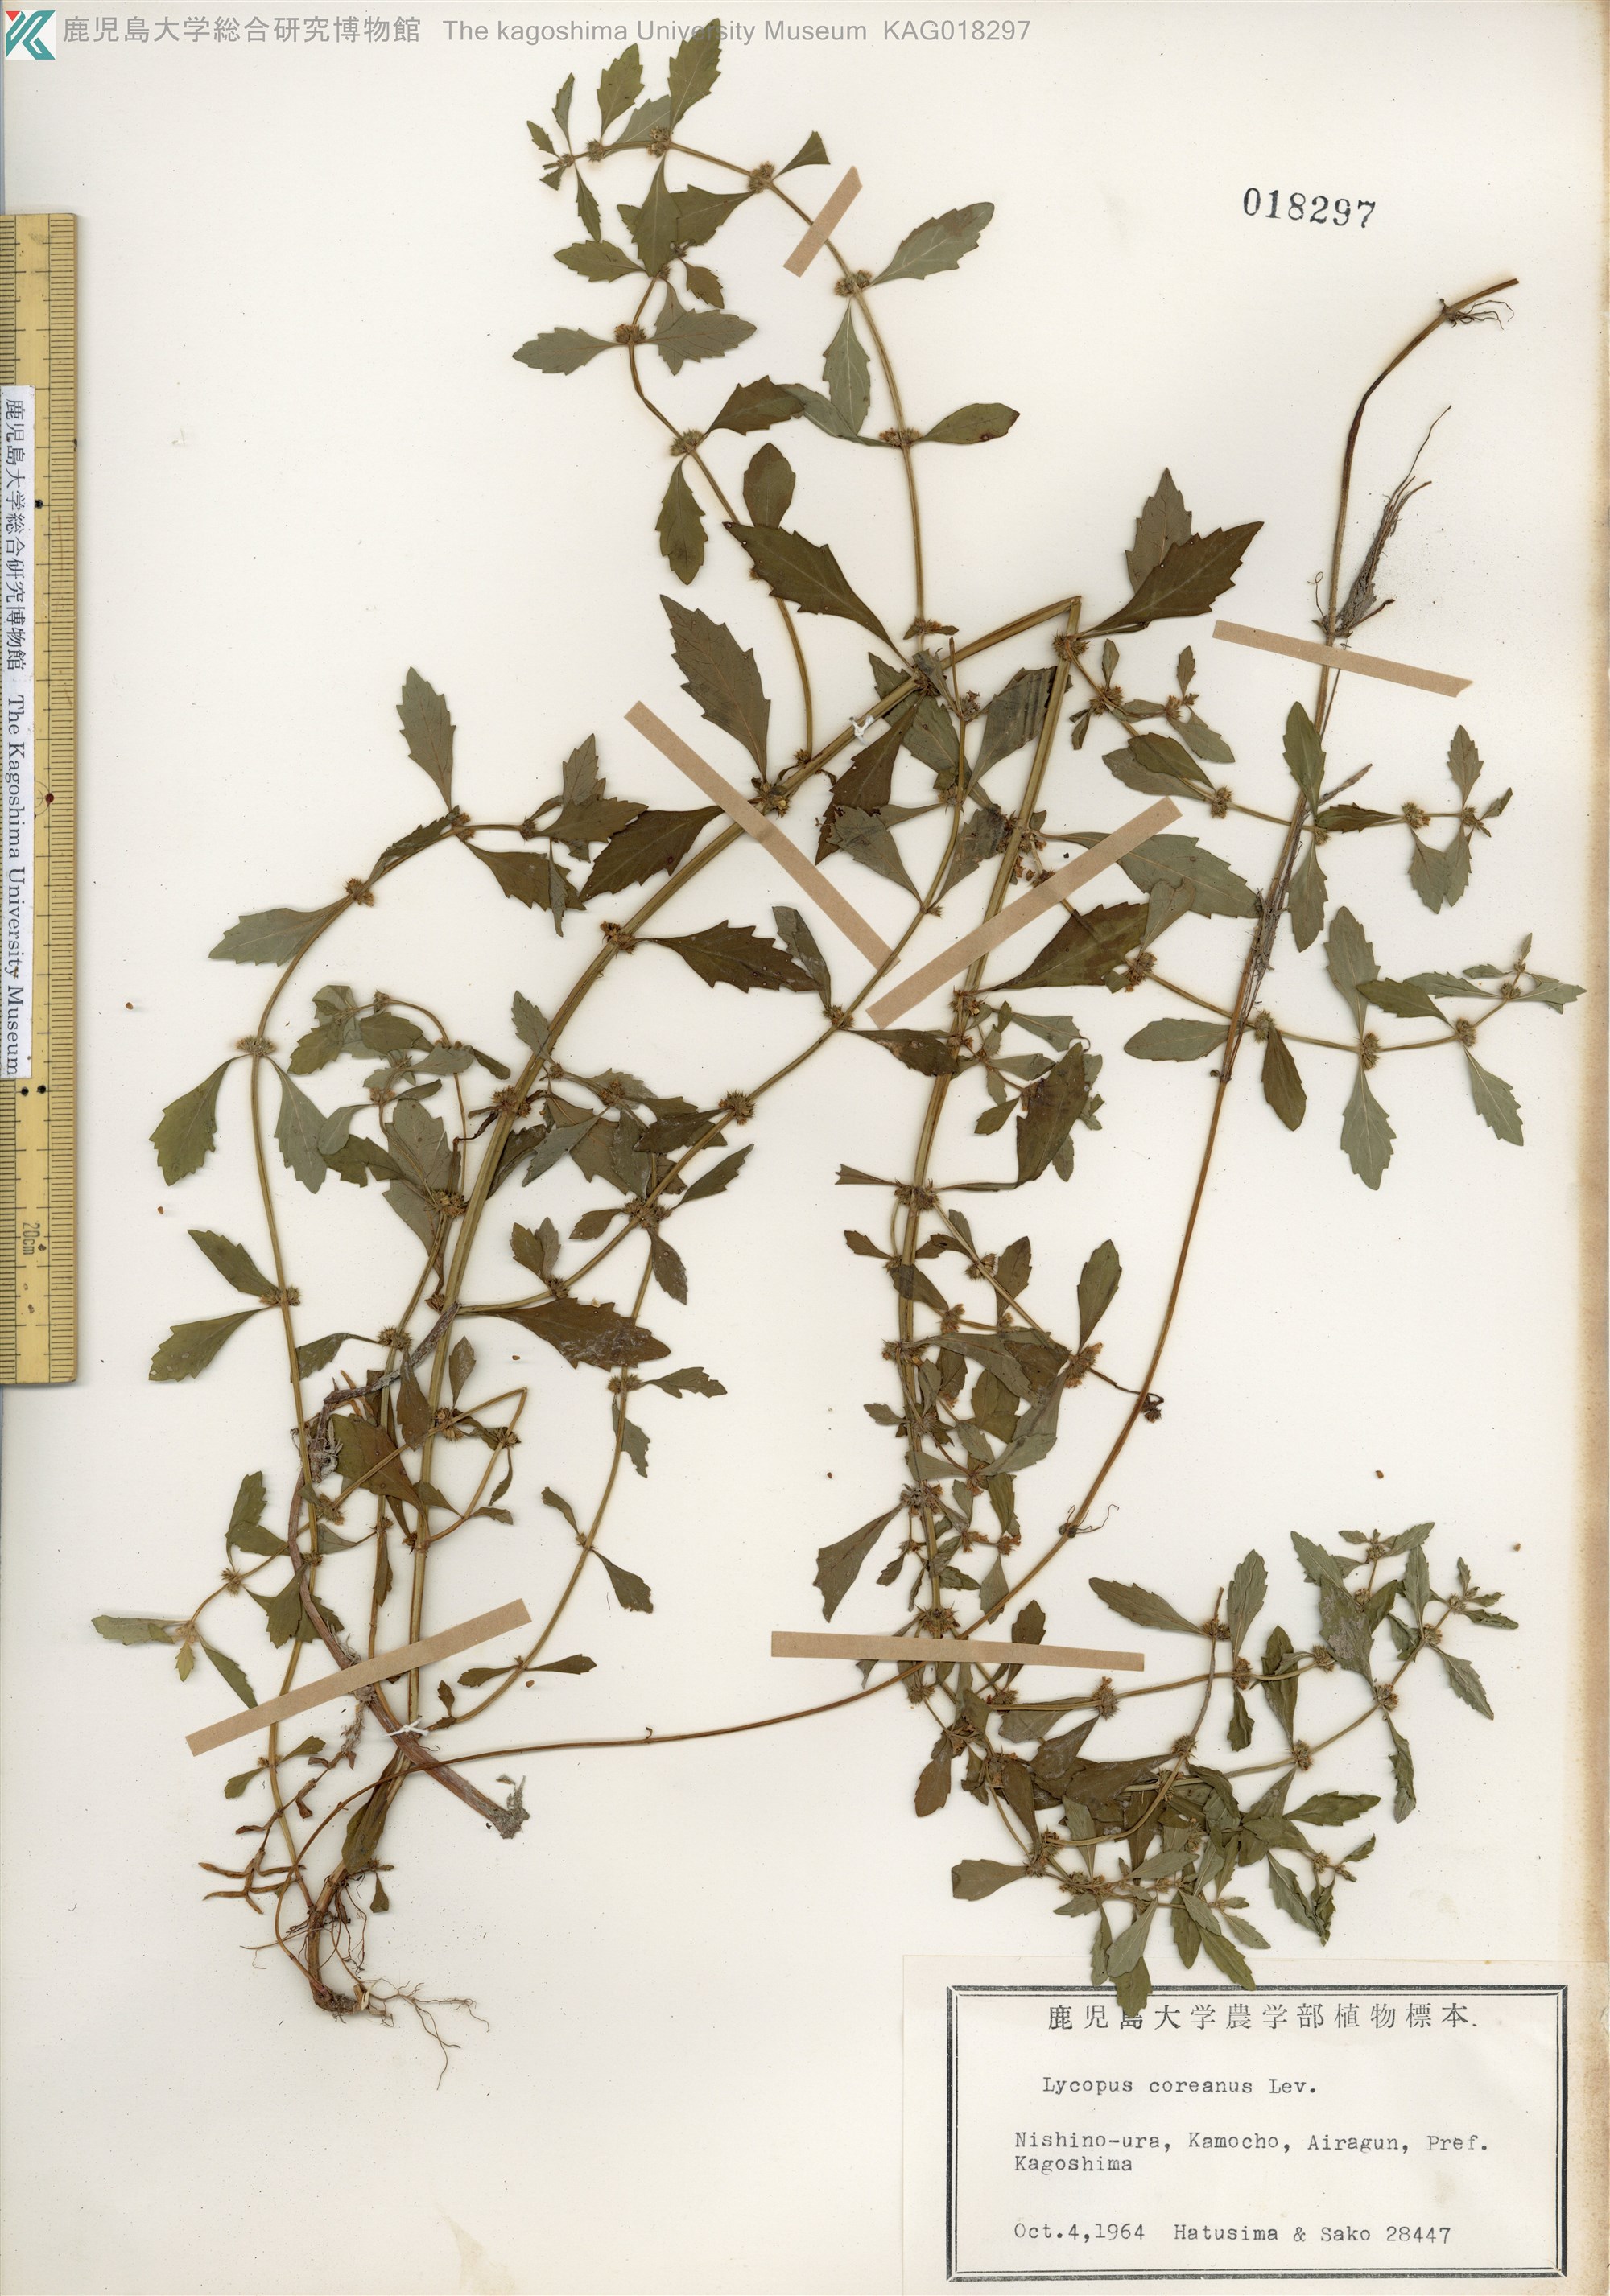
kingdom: Plantae
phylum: Tracheophyta
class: Magnoliopsida
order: Lamiales
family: Lamiaceae
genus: Lycopus
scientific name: Lycopus cavaleriei
